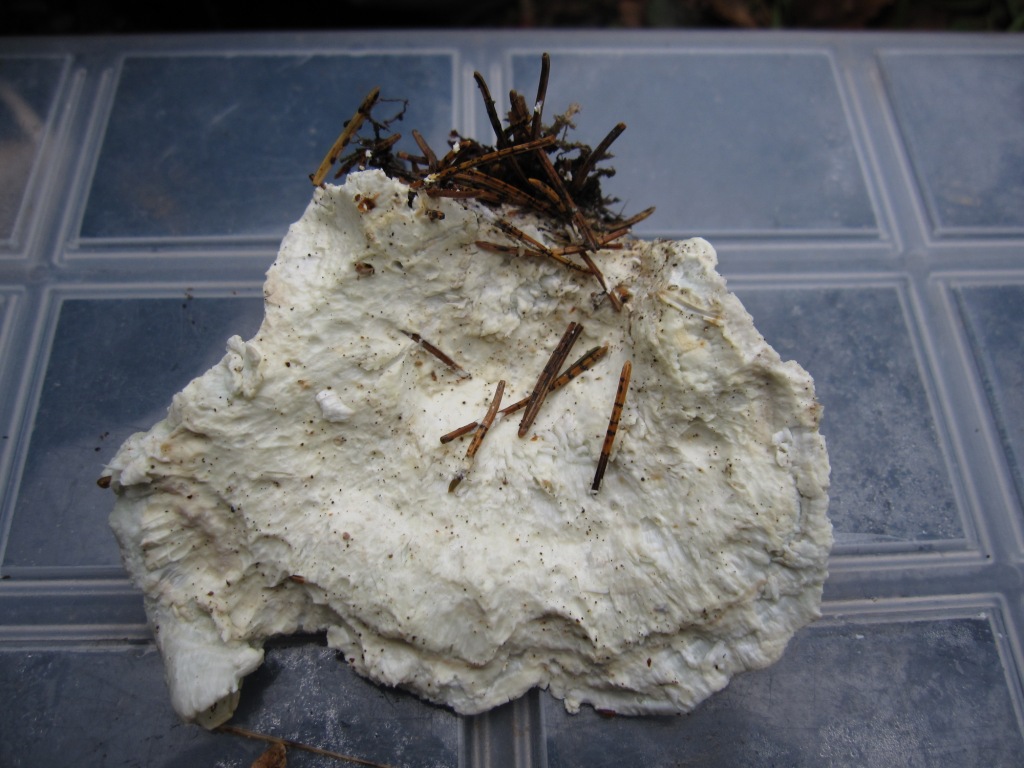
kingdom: Fungi
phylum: Basidiomycota
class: Agaricomycetes
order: Polyporales
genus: Calcipostia
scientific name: Calcipostia guttulata
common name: dråbe-kødporesvamp
